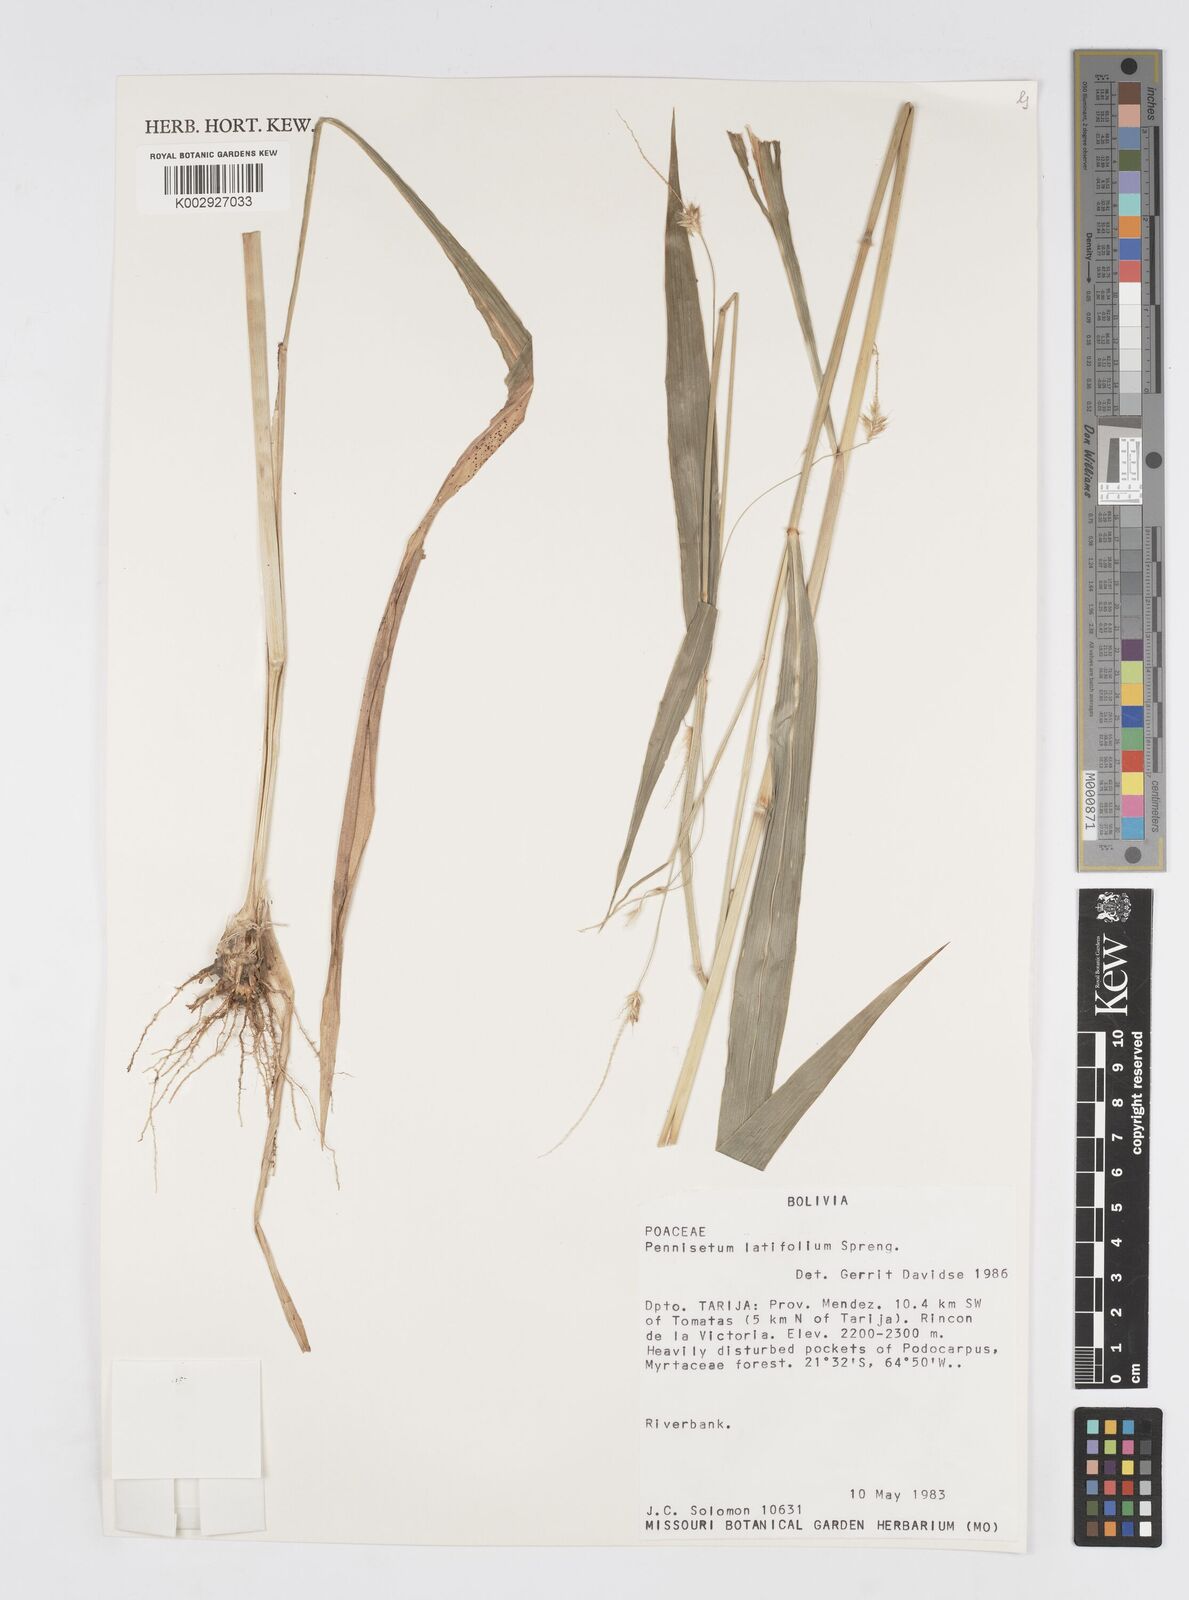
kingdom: Plantae
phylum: Tracheophyta
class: Liliopsida
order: Poales
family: Poaceae
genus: Cenchrus
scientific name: Cenchrus latifolius
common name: Sandbur
